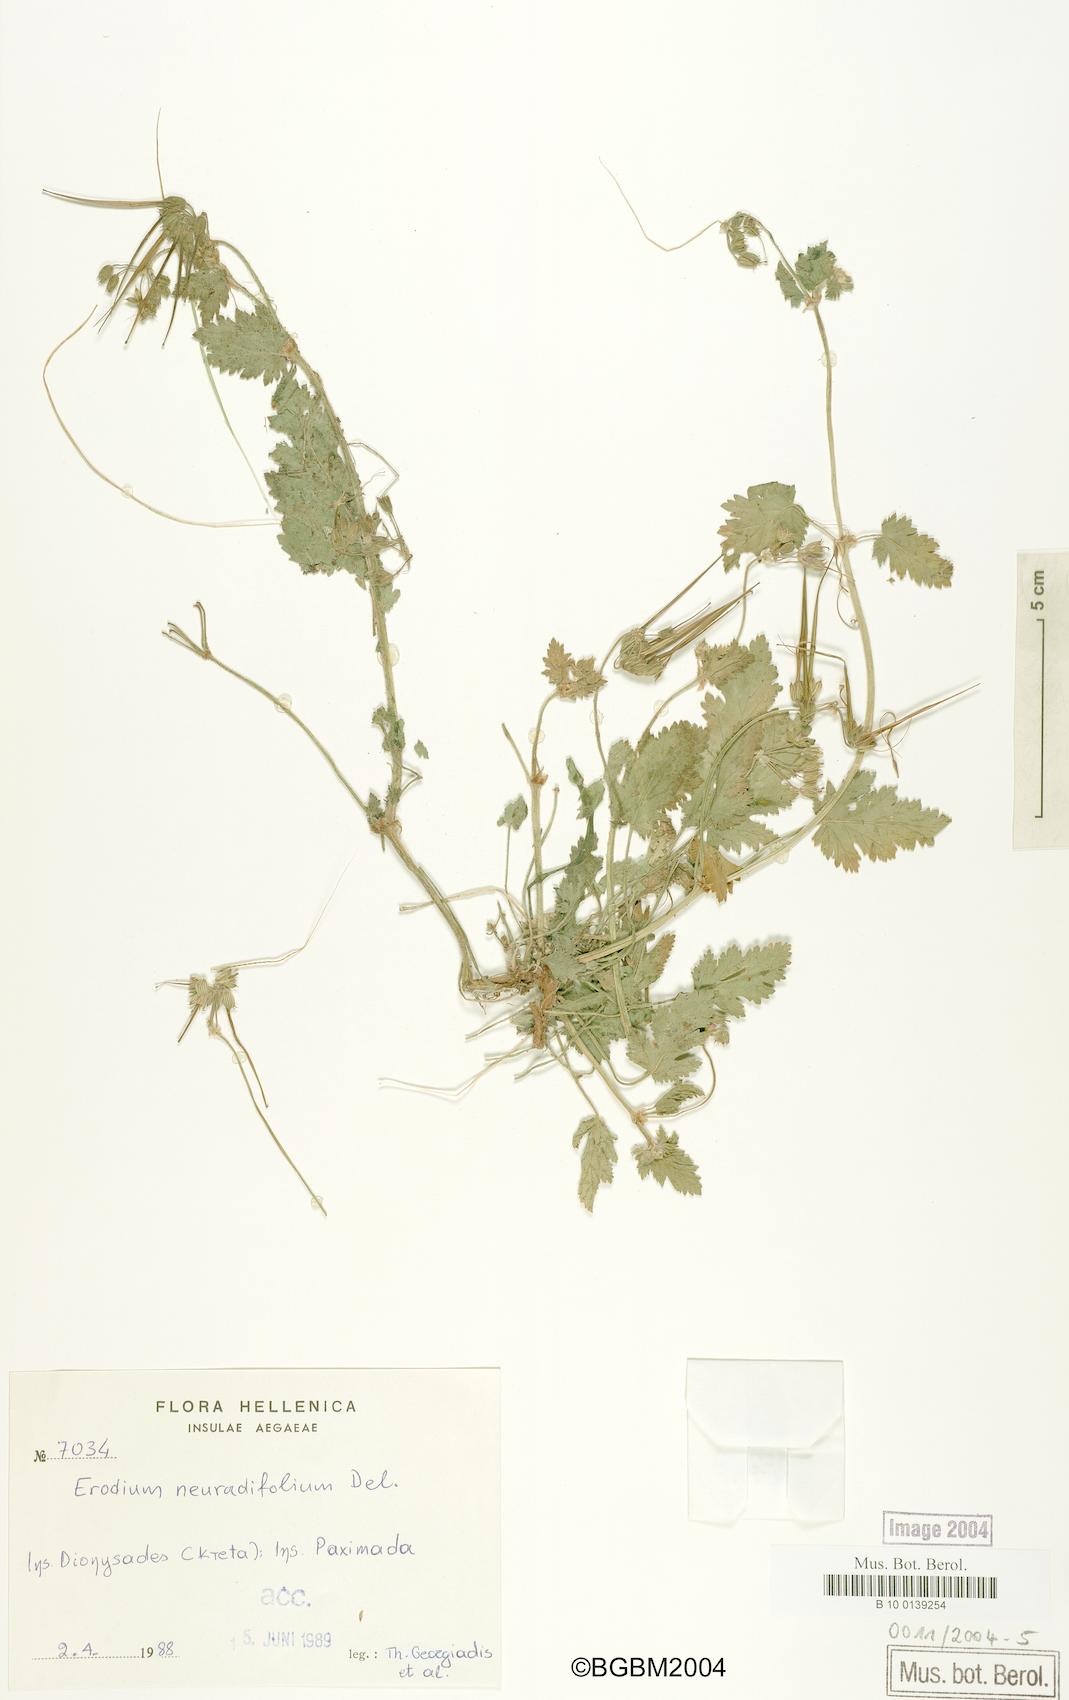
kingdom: Plantae
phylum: Tracheophyta
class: Magnoliopsida
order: Geraniales
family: Geraniaceae
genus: Erodium
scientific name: Erodium malacoides
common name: Soft stork's-bill
